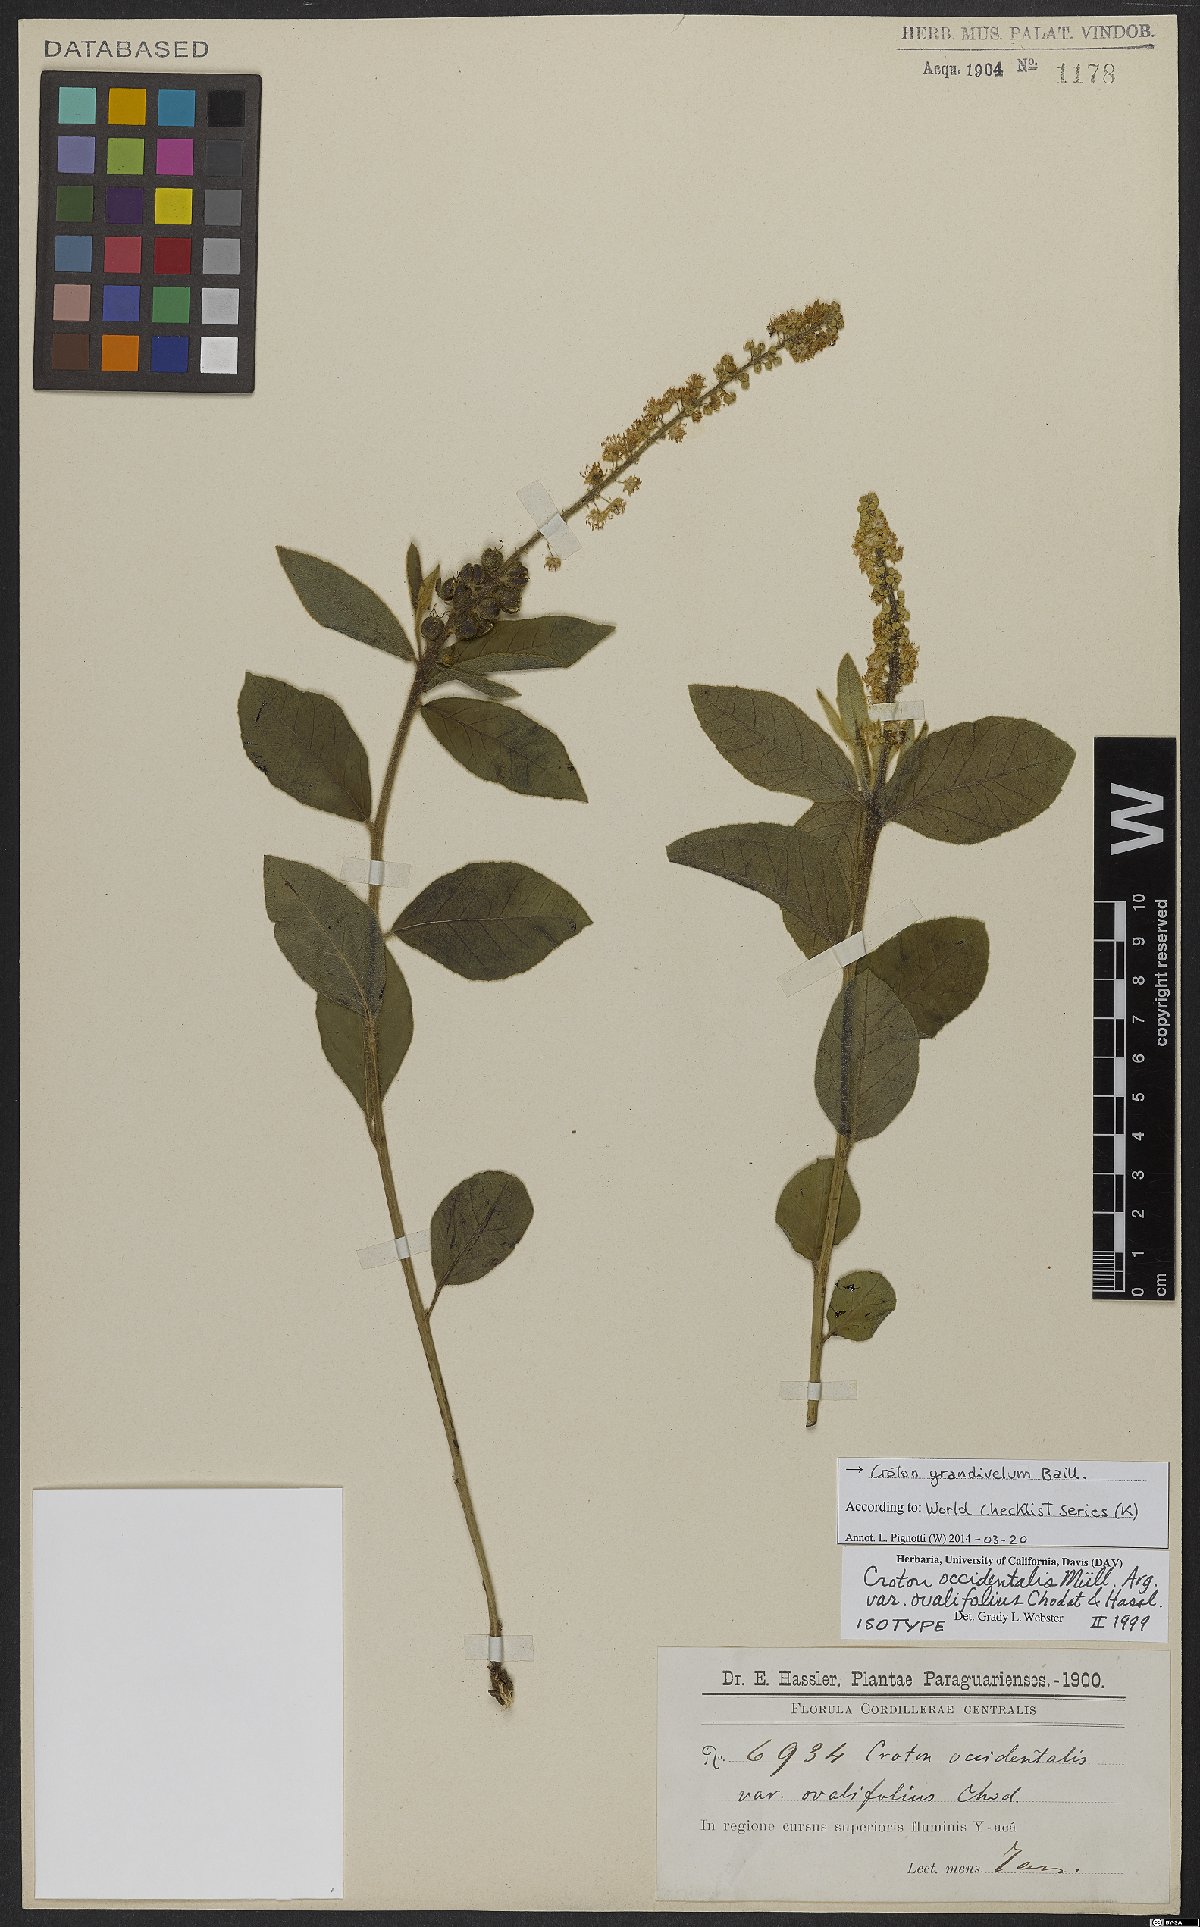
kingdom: Plantae
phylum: Tracheophyta
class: Magnoliopsida
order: Malpighiales
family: Euphorbiaceae
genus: Croton
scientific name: Croton grandivelum
